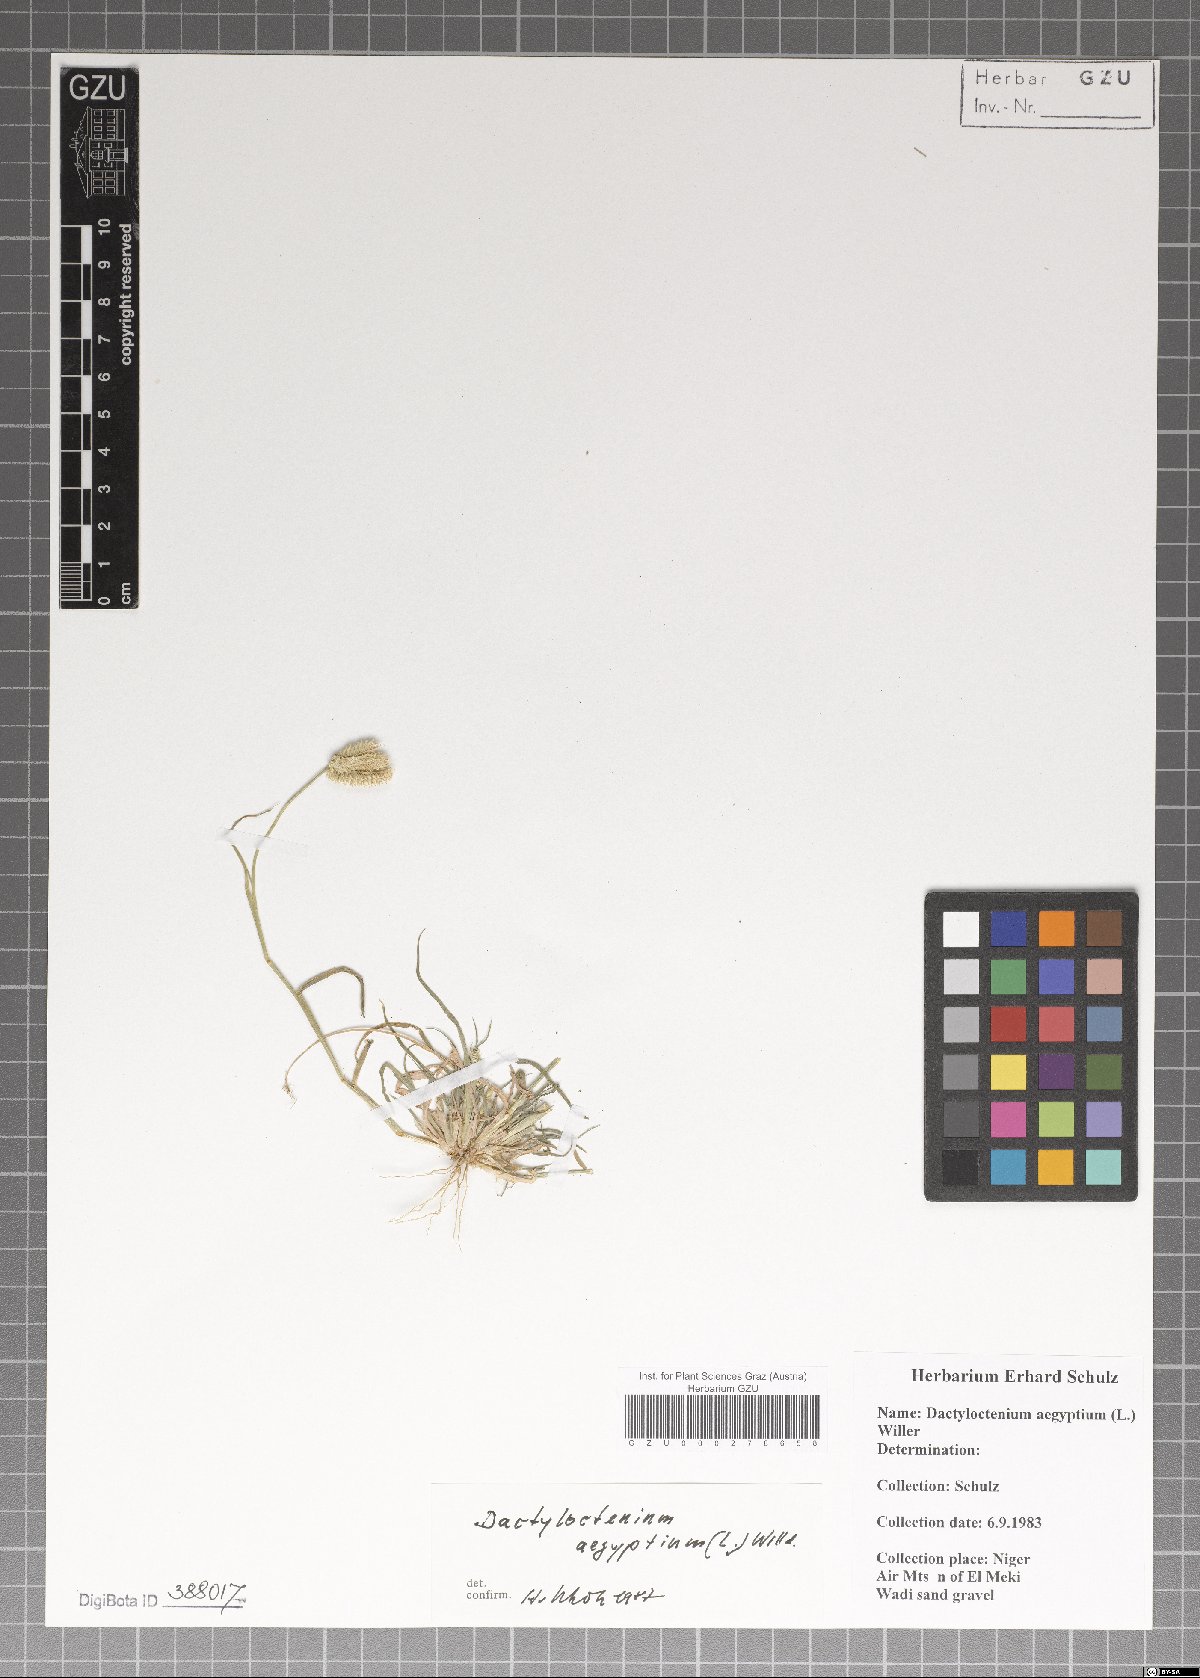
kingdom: Plantae
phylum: Tracheophyta
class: Liliopsida
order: Poales
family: Poaceae
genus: Dactyloctenium
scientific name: Dactyloctenium aegyptium
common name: Egyptian grass
